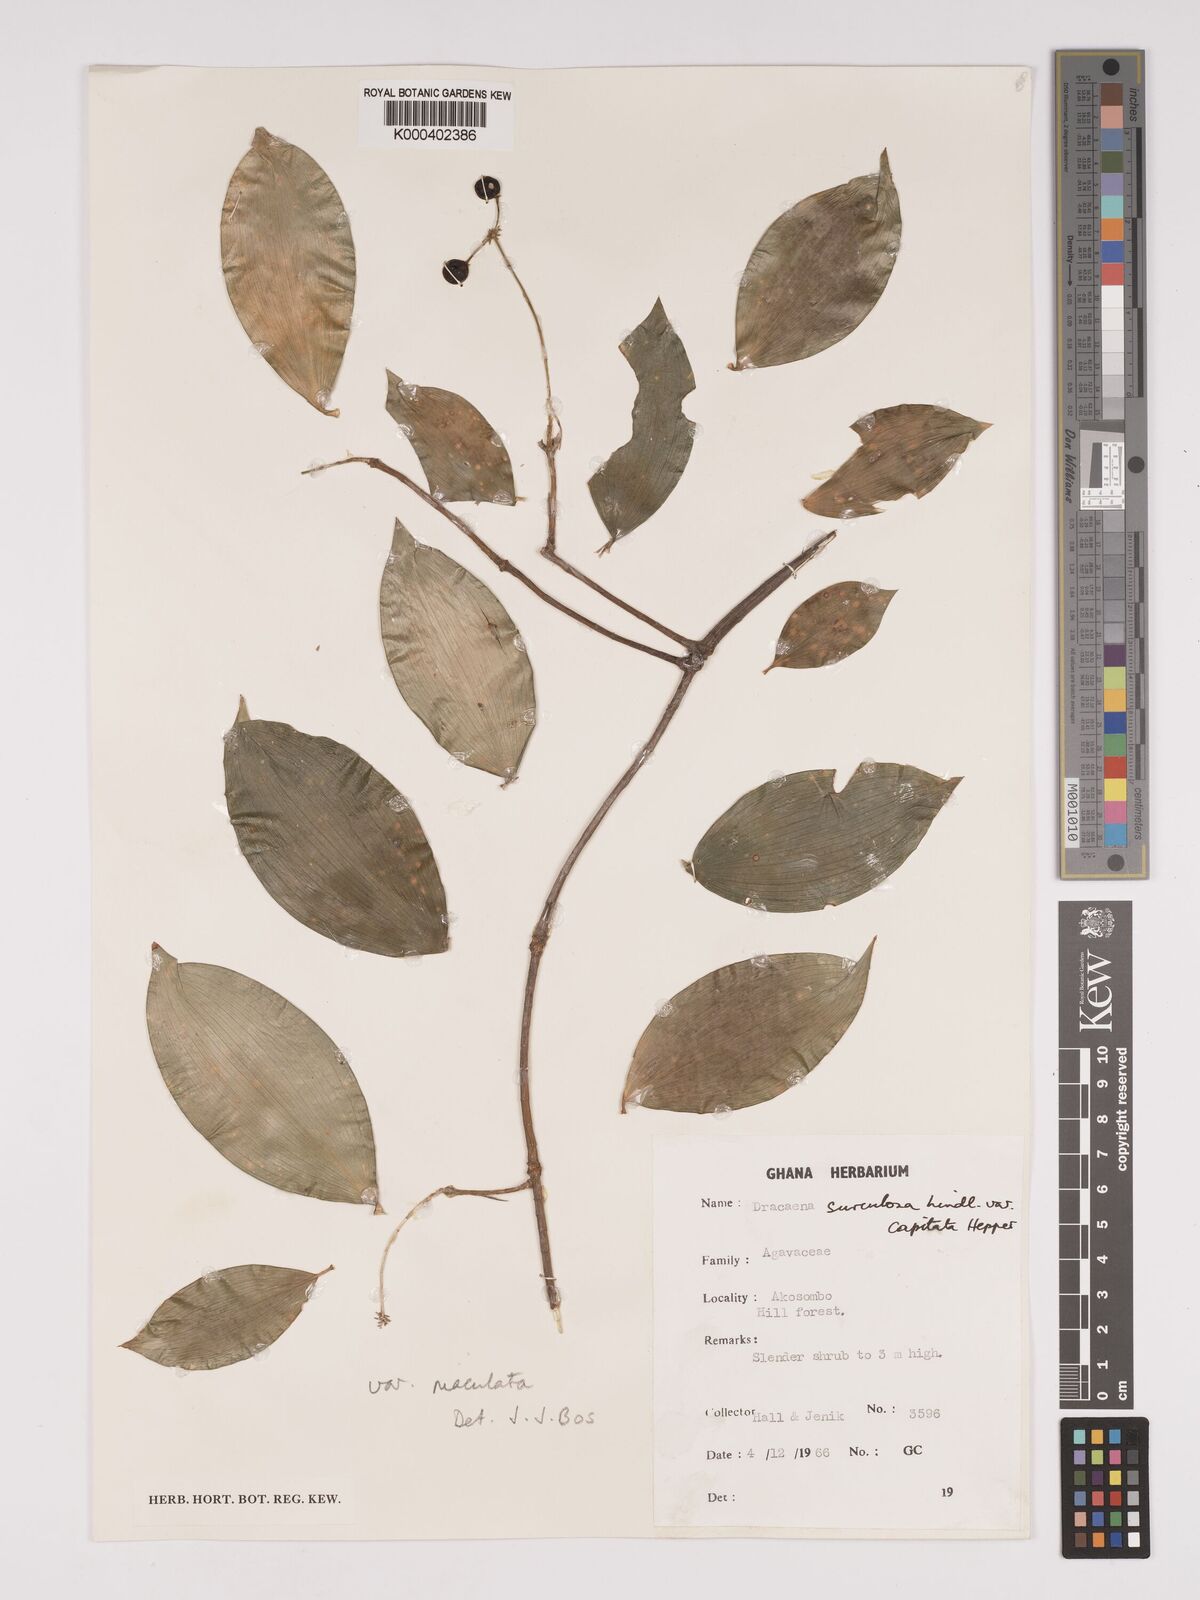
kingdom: Plantae
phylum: Tracheophyta
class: Liliopsida
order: Asparagales
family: Asparagaceae
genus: Dracaena
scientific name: Dracaena surculosa
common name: Spotted dracaena
